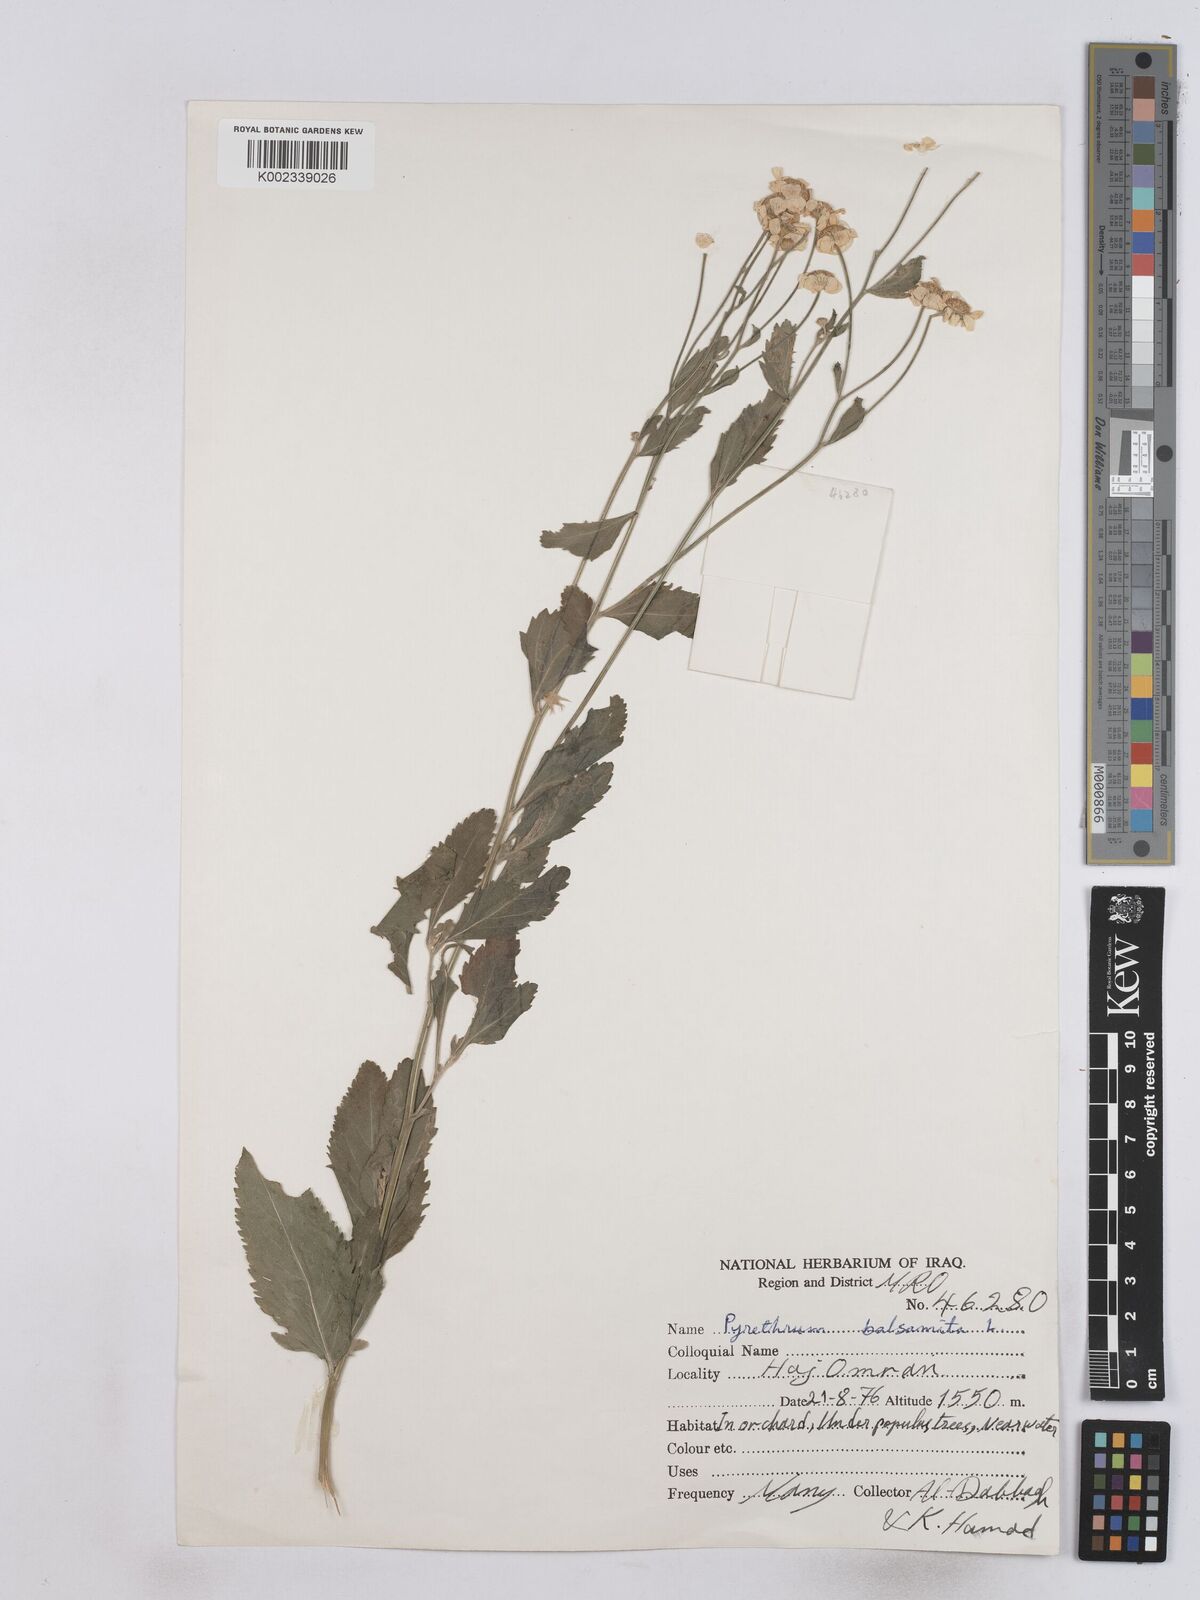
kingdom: Plantae
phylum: Tracheophyta
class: Magnoliopsida
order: Asterales
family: Asteraceae
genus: Tanacetum
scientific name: Tanacetum balsamitoides
